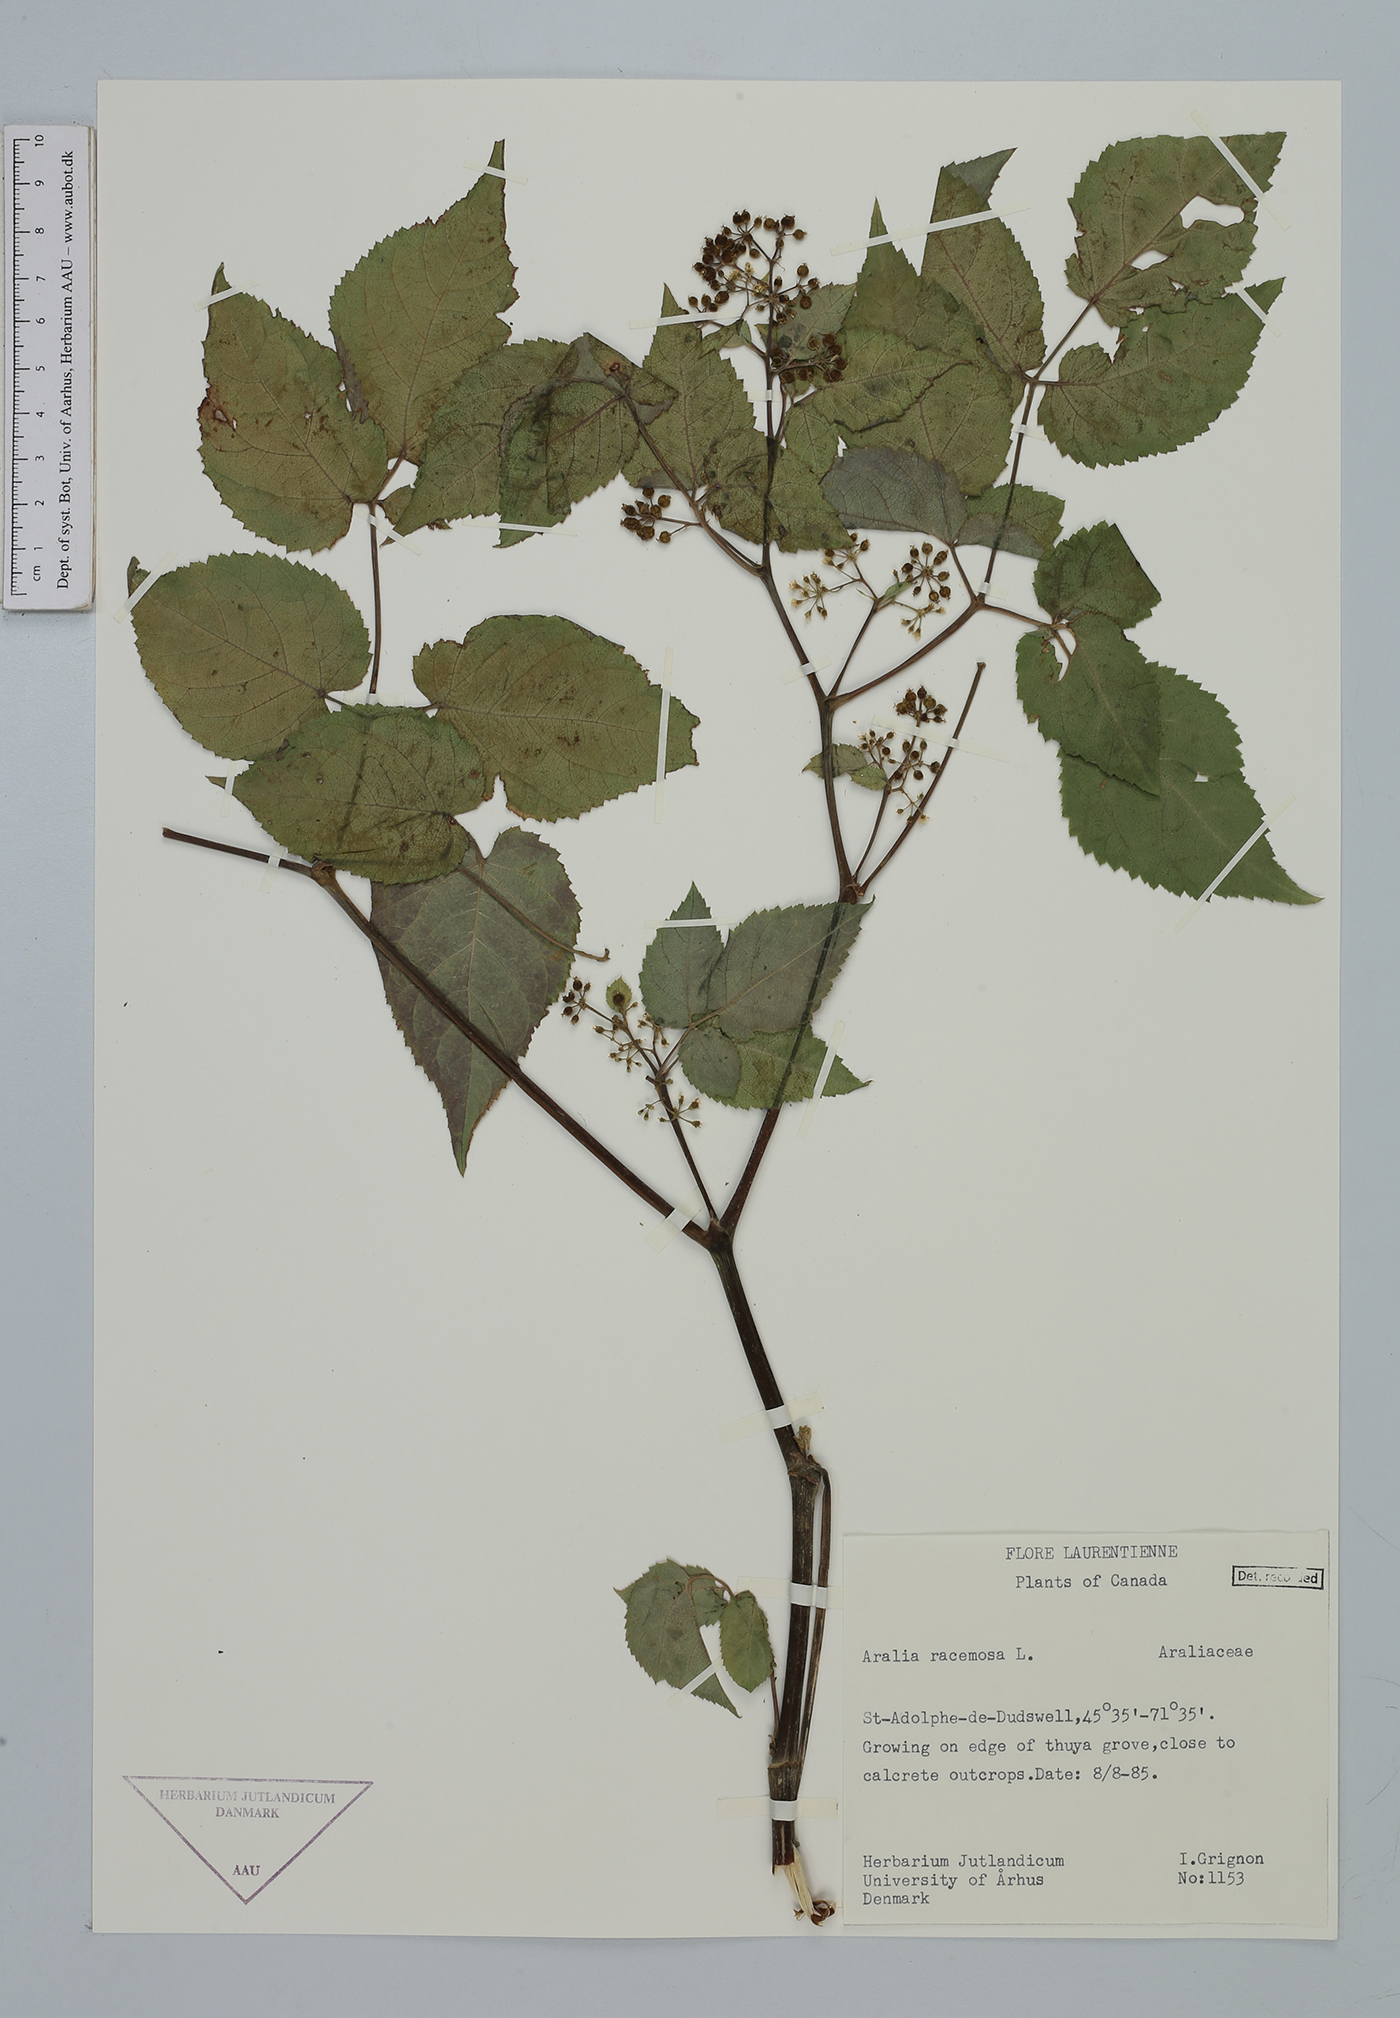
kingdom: Plantae
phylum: Tracheophyta
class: Magnoliopsida
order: Apiales
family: Araliaceae
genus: Aralia
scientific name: Aralia racemosa
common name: American-spikenard
